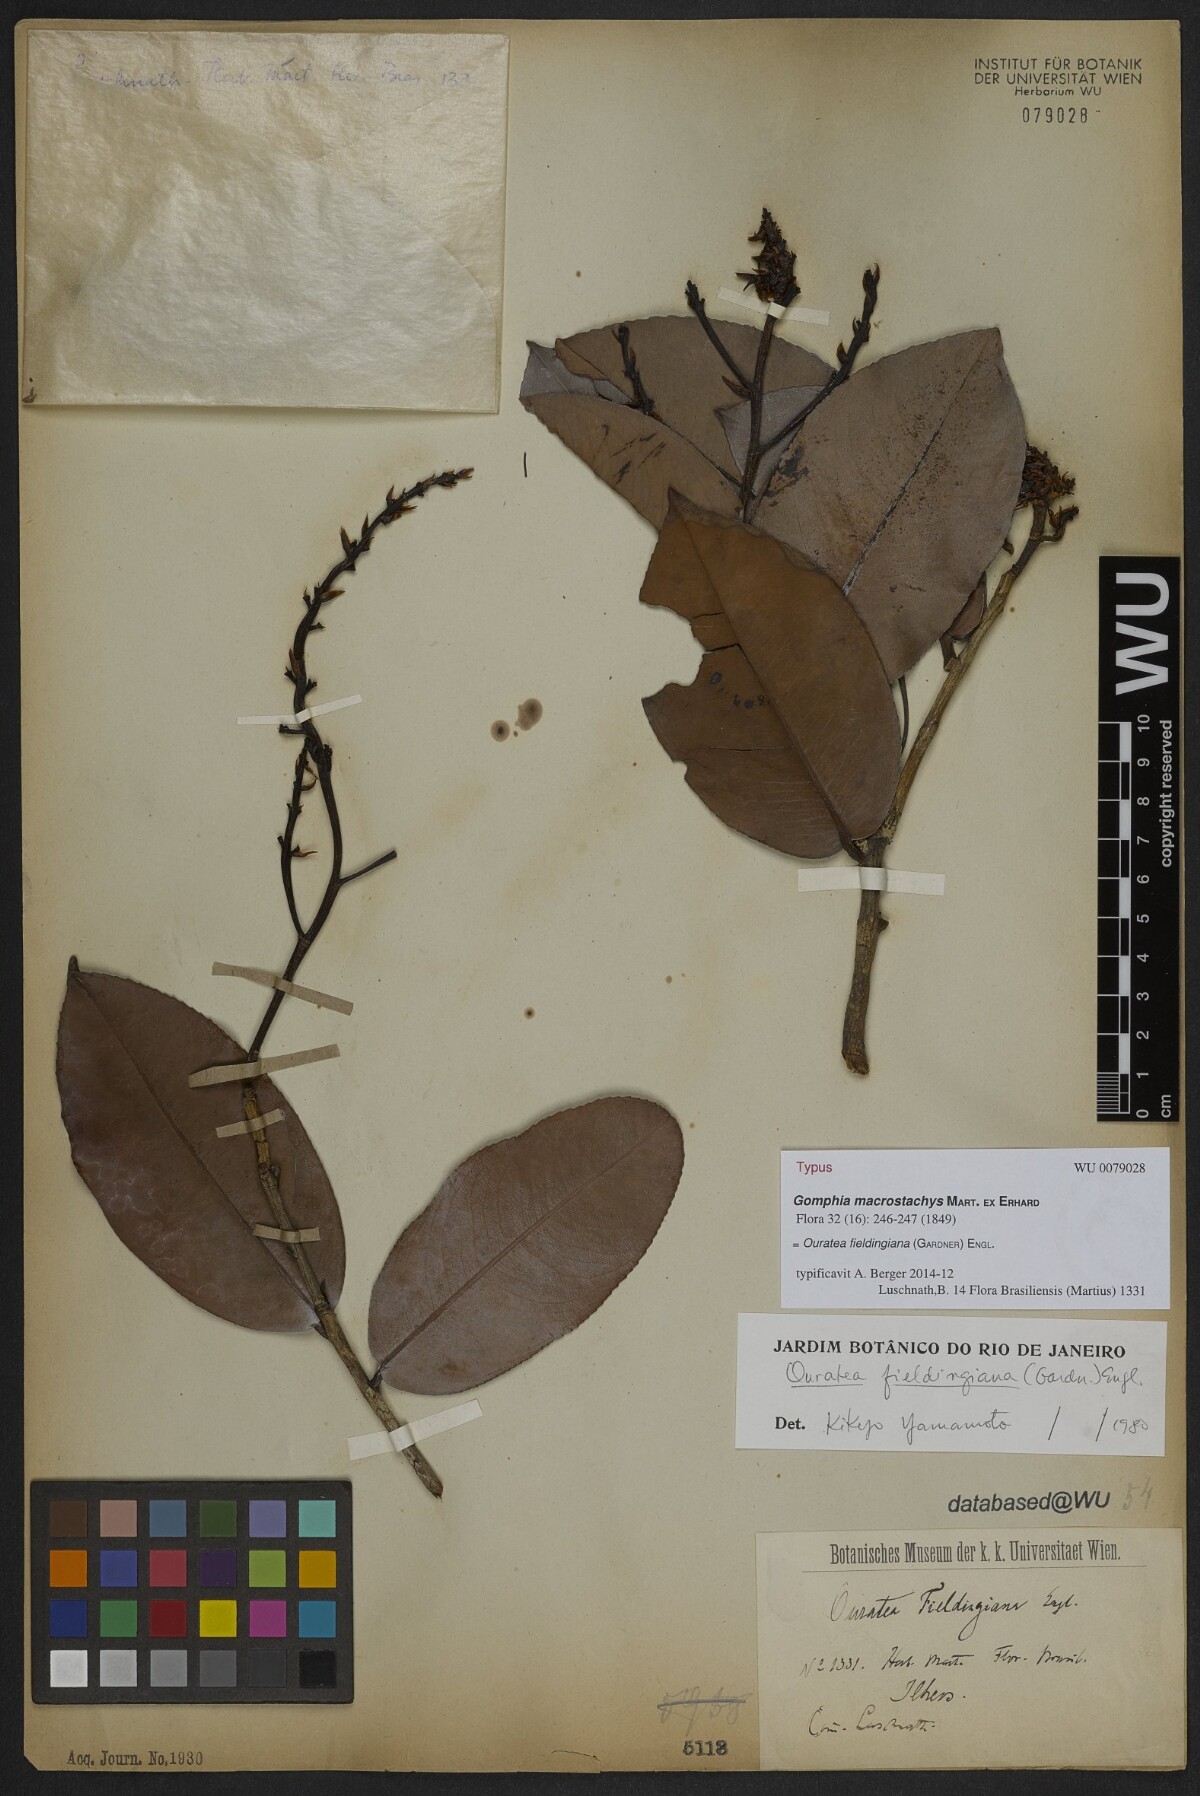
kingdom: Plantae
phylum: Tracheophyta
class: Magnoliopsida
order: Malpighiales
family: Ochnaceae
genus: Ouratea
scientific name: Ouratea fieldingiana
